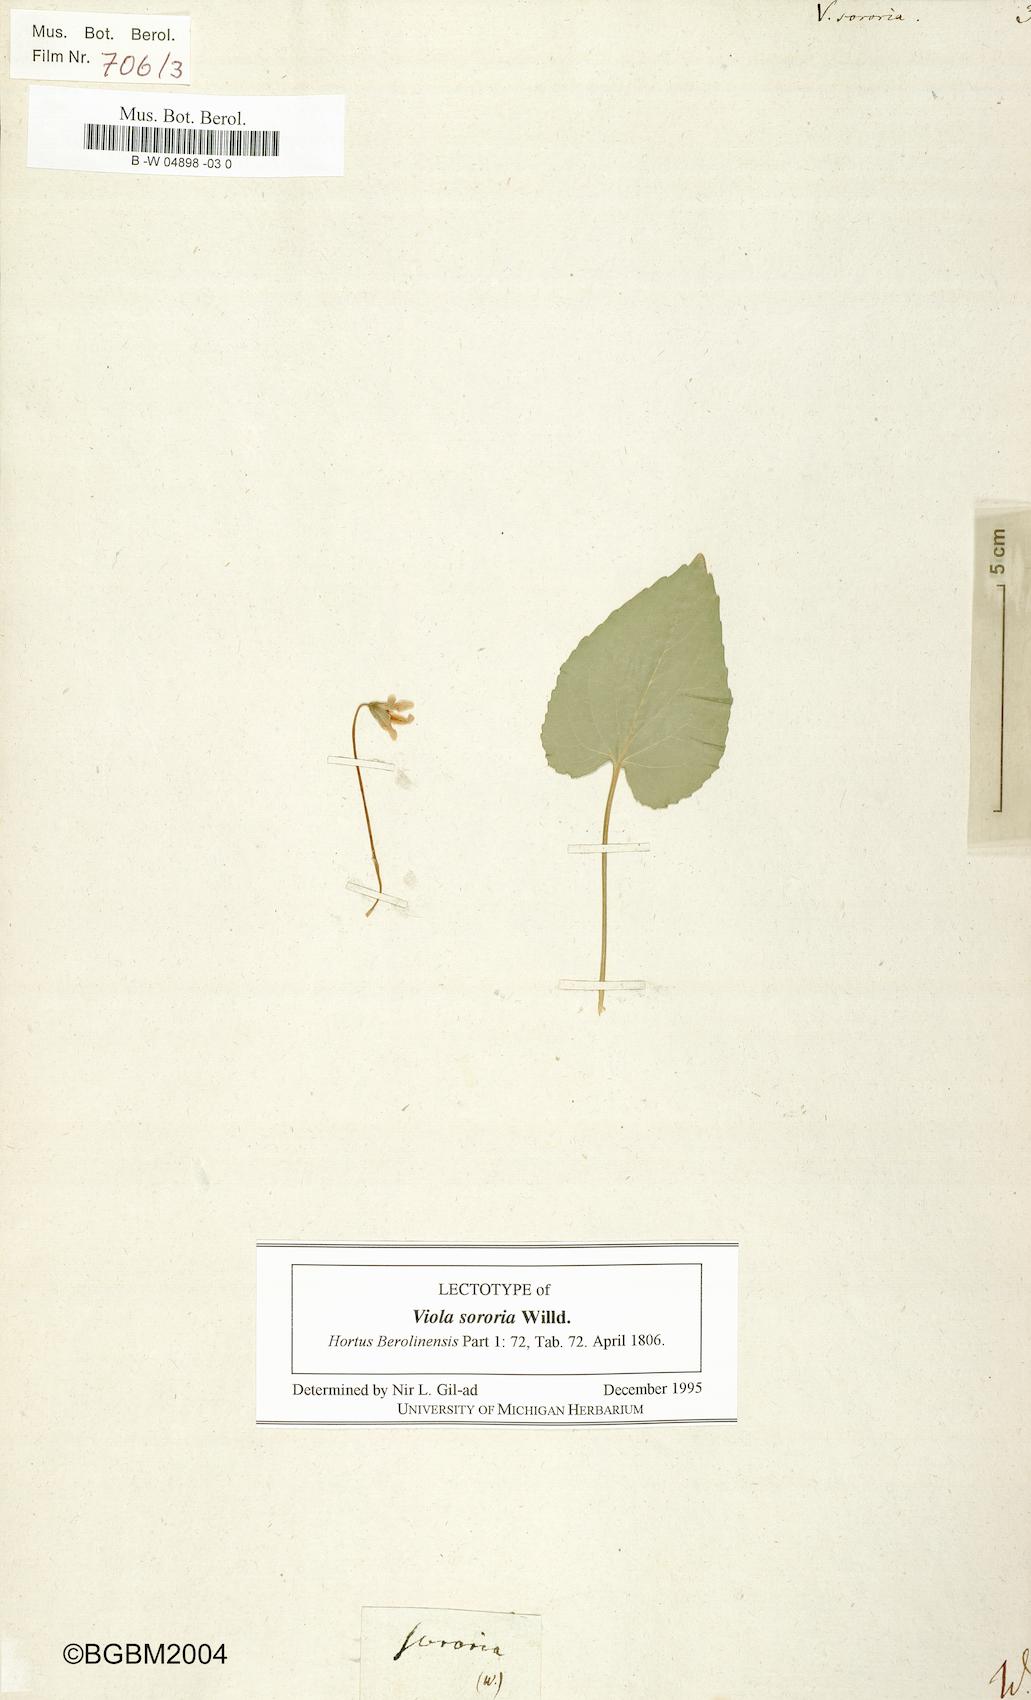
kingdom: Plantae
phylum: Tracheophyta
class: Magnoliopsida
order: Malpighiales
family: Violaceae
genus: Viola
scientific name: Viola sororia
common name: Dooryard violet
